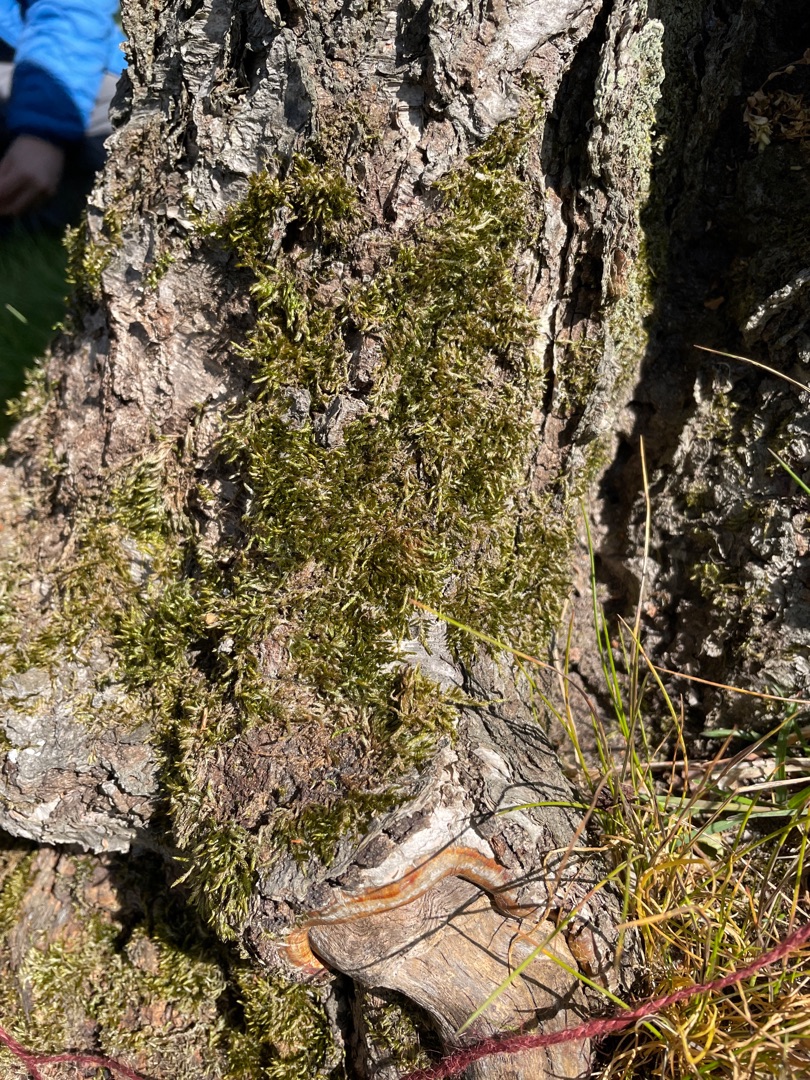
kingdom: Plantae
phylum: Bryophyta
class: Bryopsida
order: Hypnales
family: Hypnaceae
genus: Hypnum
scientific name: Hypnum cupressiforme
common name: Almindelig cypresmos
